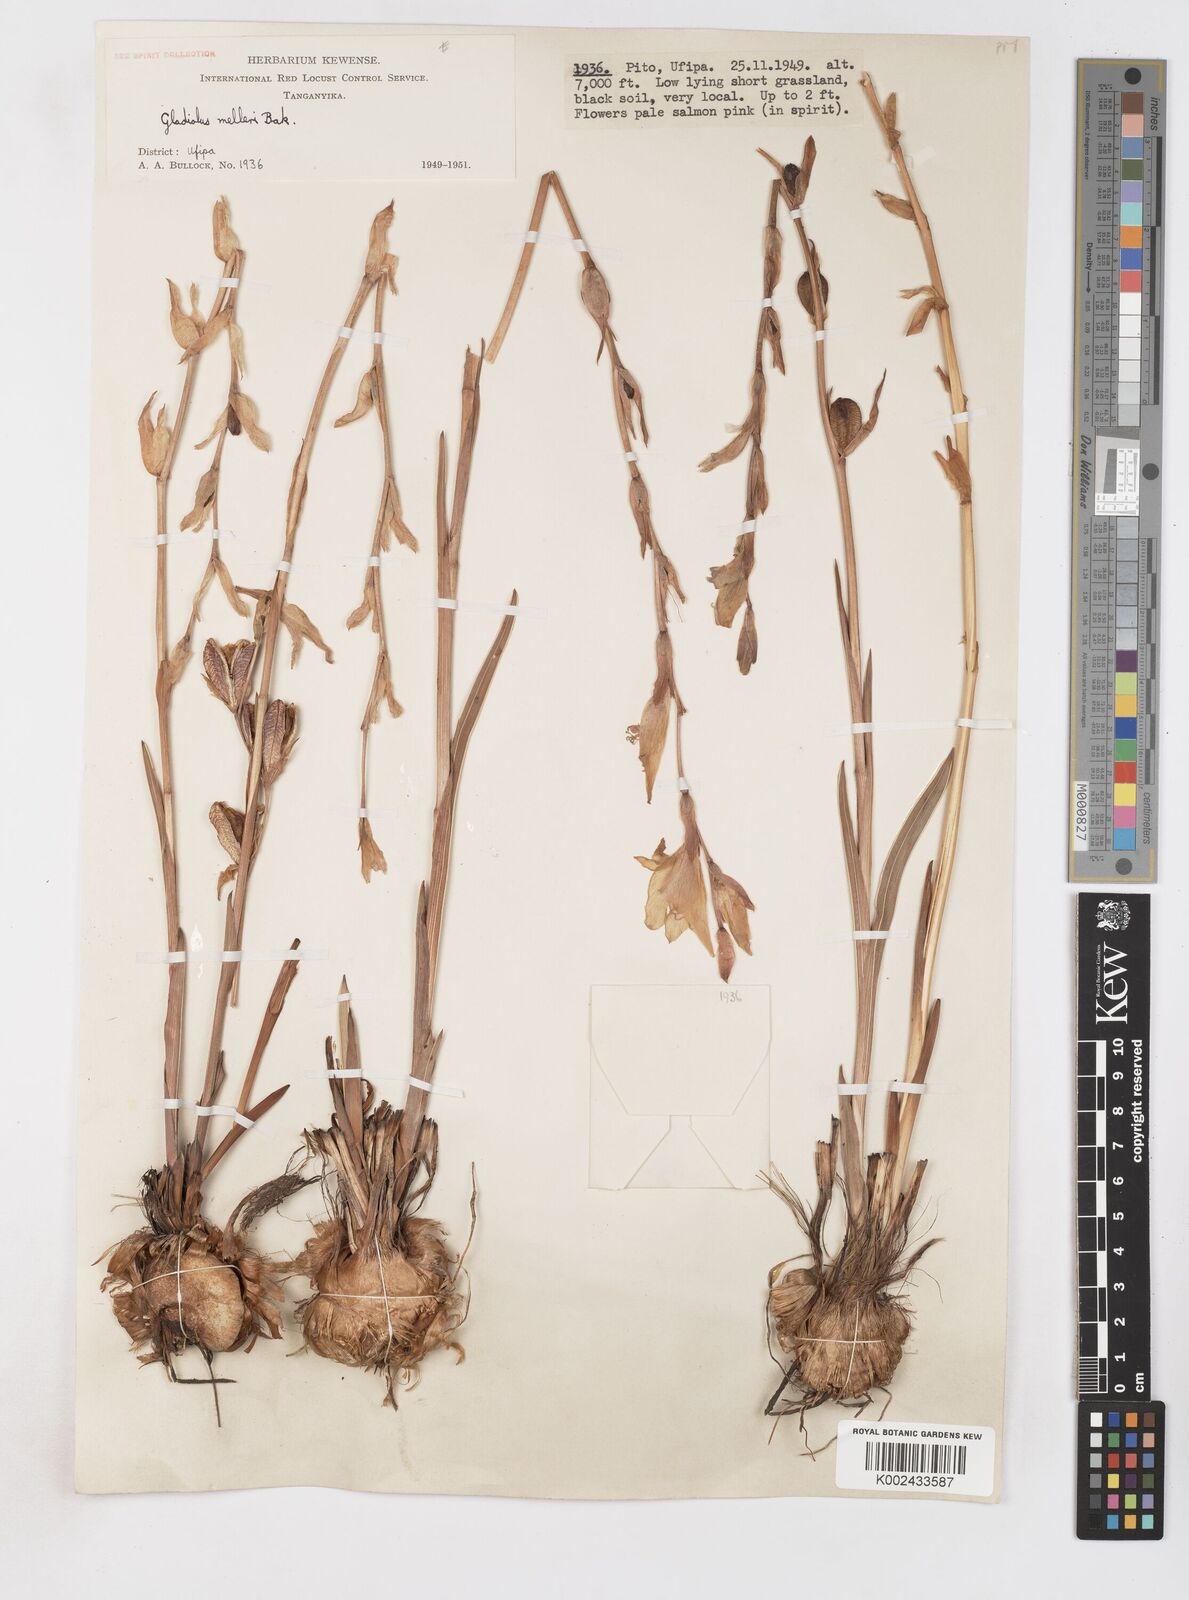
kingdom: Plantae
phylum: Tracheophyta
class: Liliopsida
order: Asparagales
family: Iridaceae
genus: Gladiolus
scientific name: Gladiolus melleri
